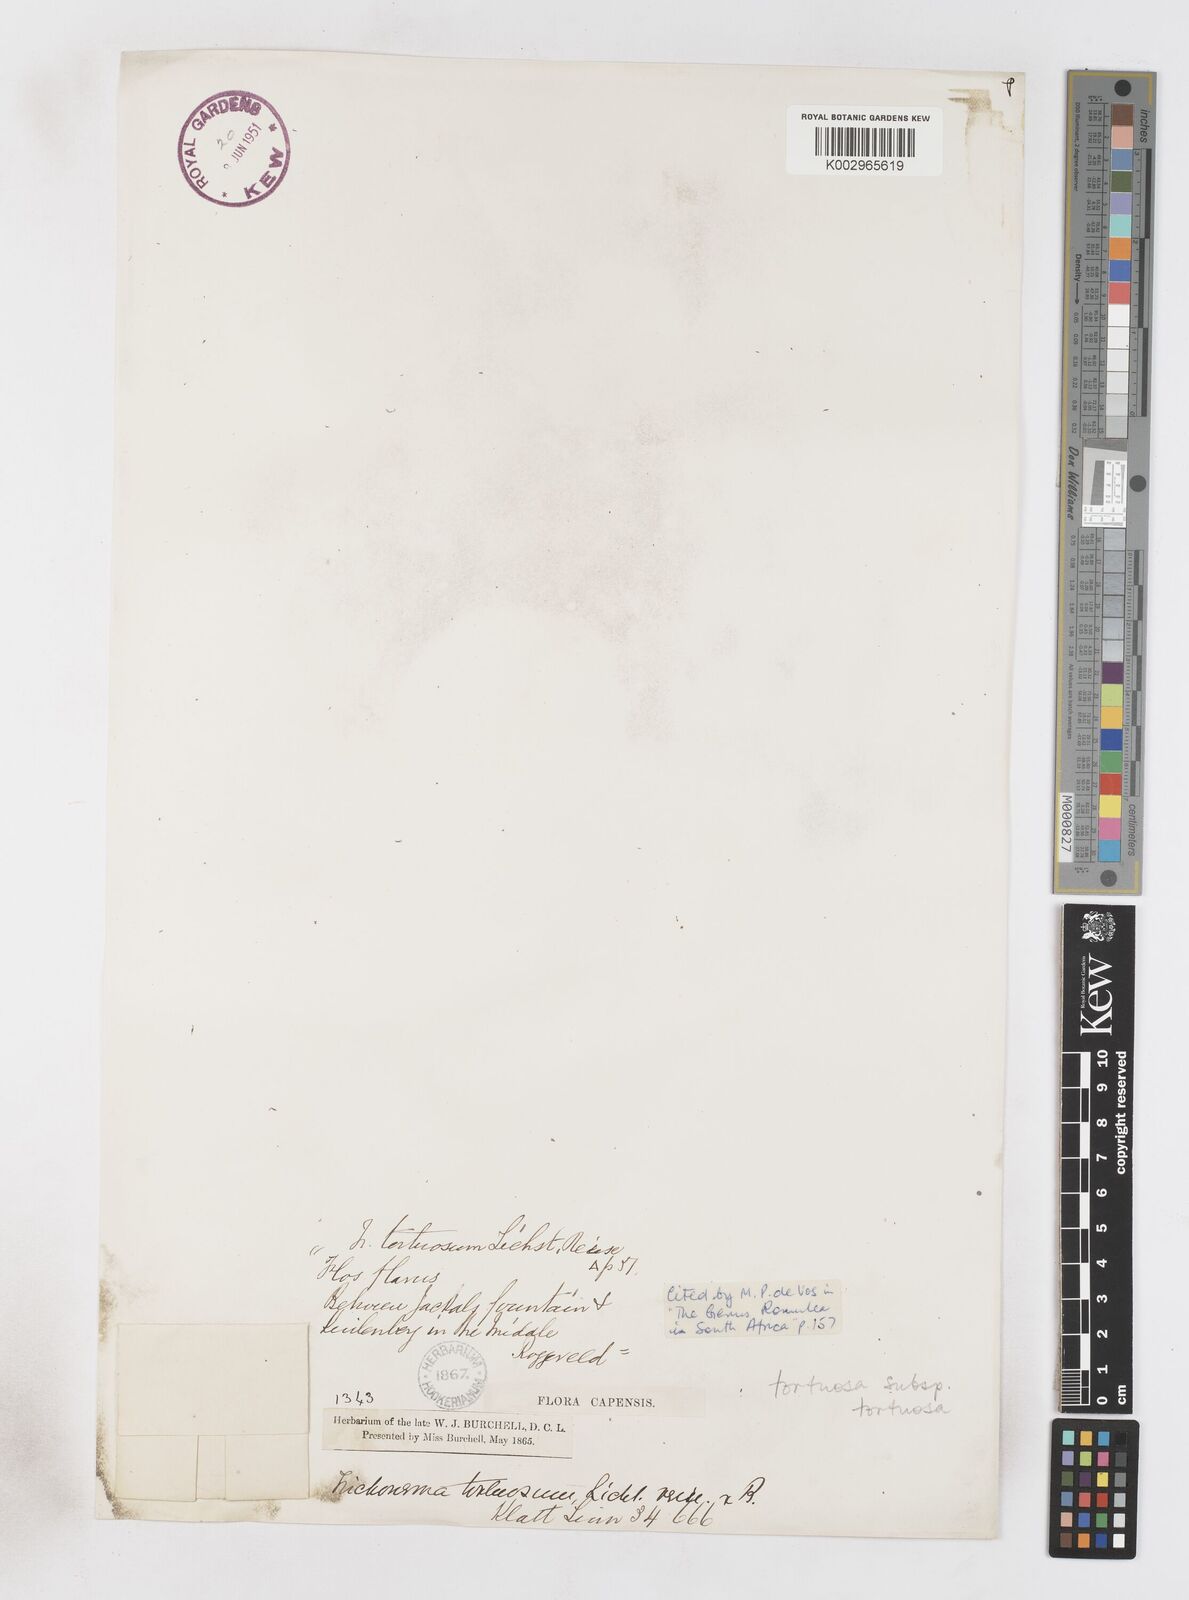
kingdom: Plantae
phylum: Tracheophyta
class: Liliopsida
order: Asparagales
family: Iridaceae
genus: Romulea
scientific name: Romulea tortuosa
